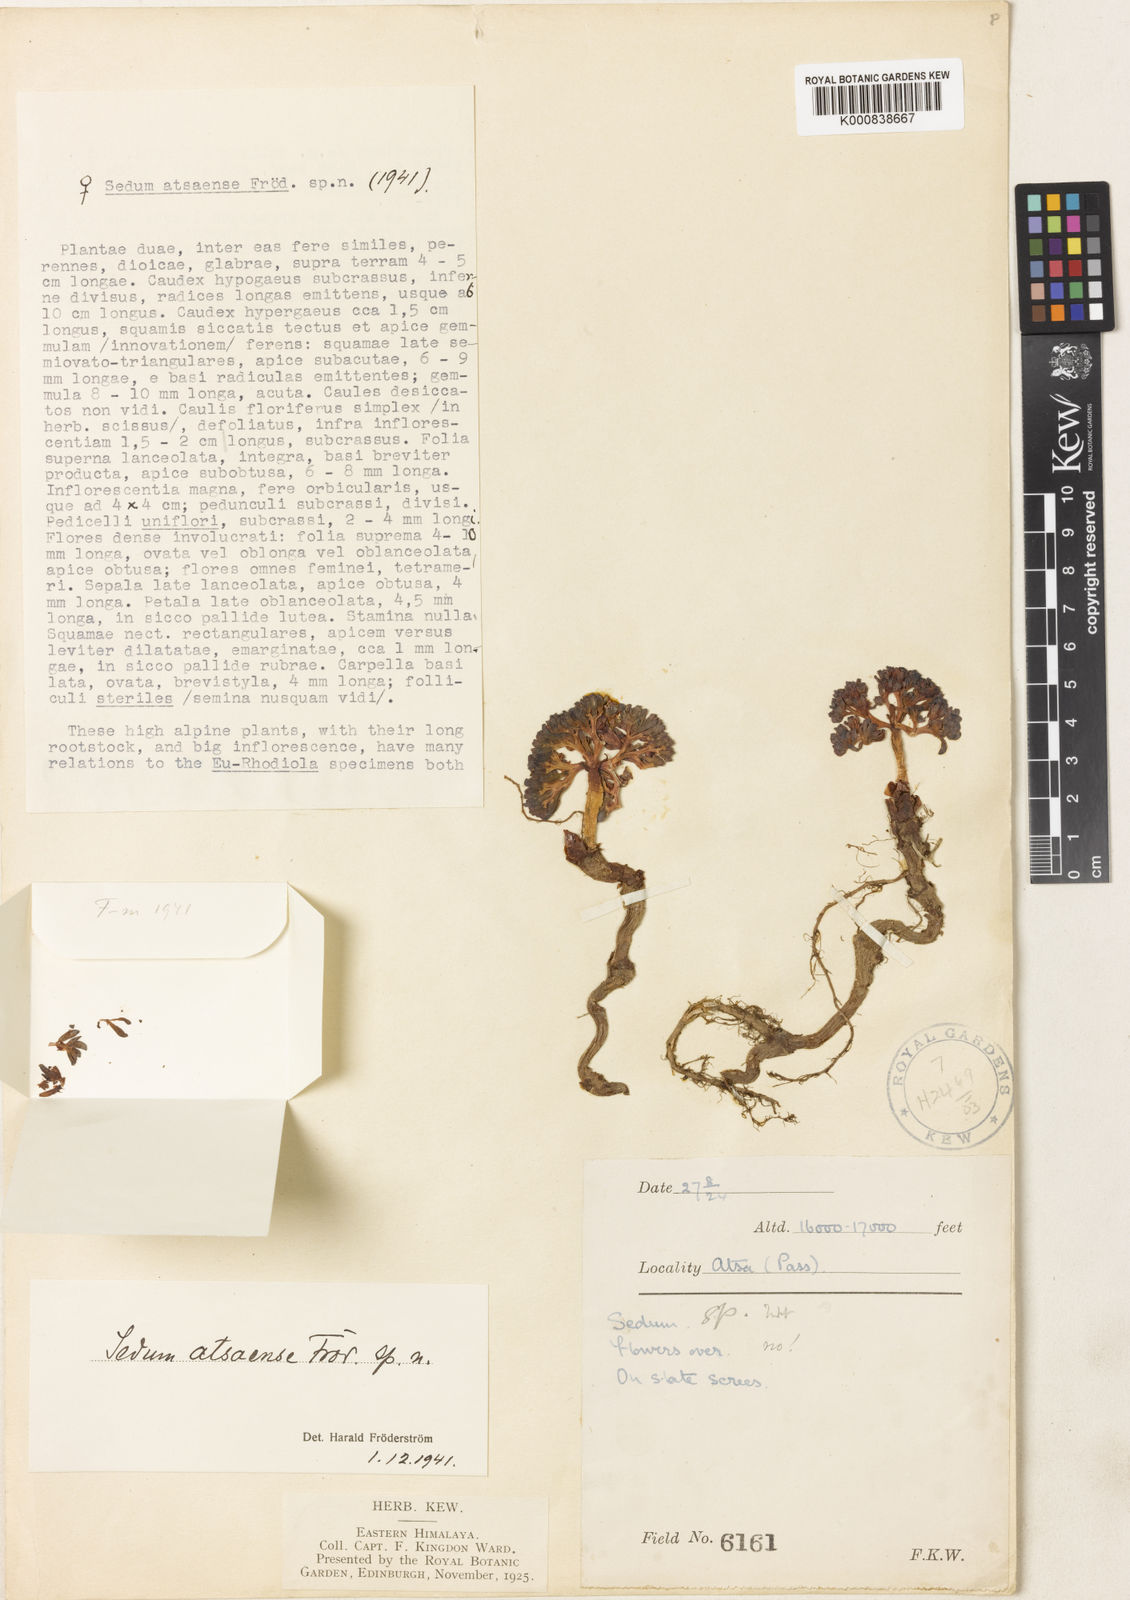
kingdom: Plantae
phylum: Tracheophyta
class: Magnoliopsida
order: Saxifragales
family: Crassulaceae
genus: Rhodiola
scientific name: Rhodiola
